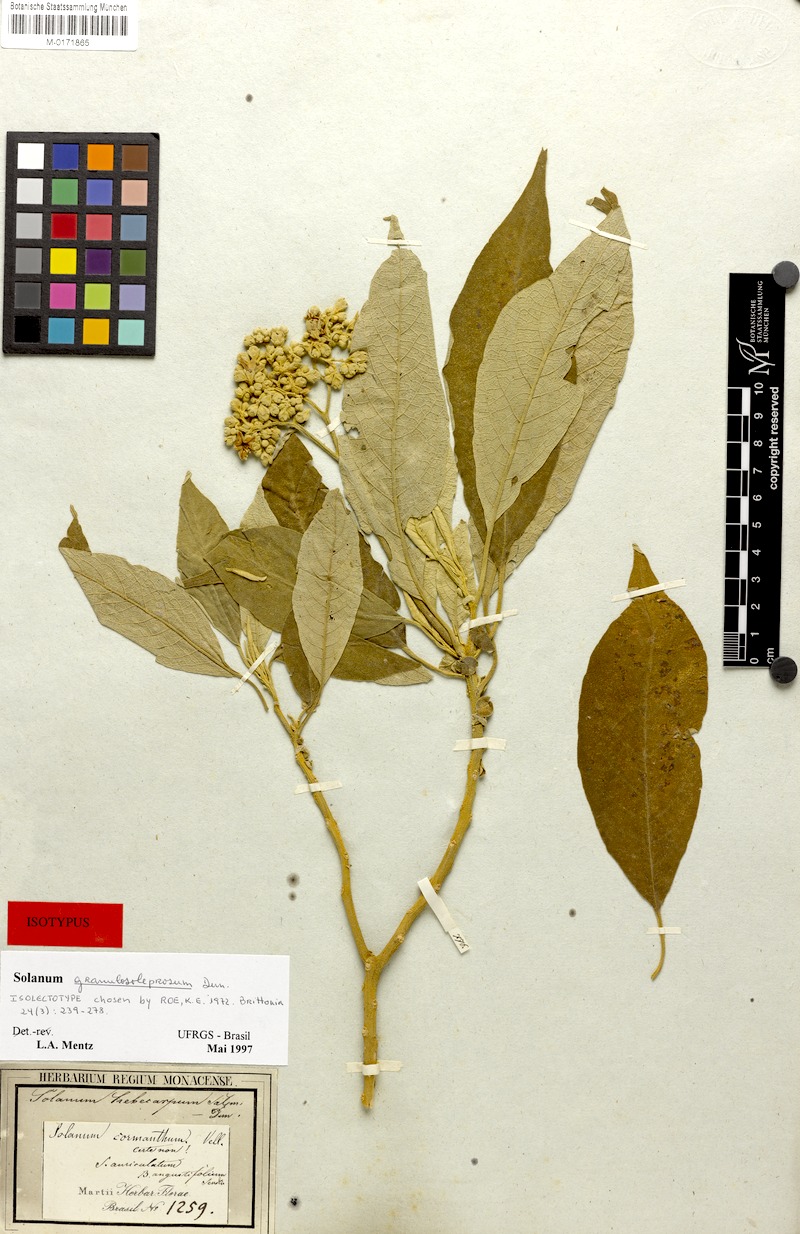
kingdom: Plantae
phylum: Tracheophyta
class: Magnoliopsida
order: Solanales
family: Solanaceae
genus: Solanum
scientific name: Solanum granulosoleprosum
